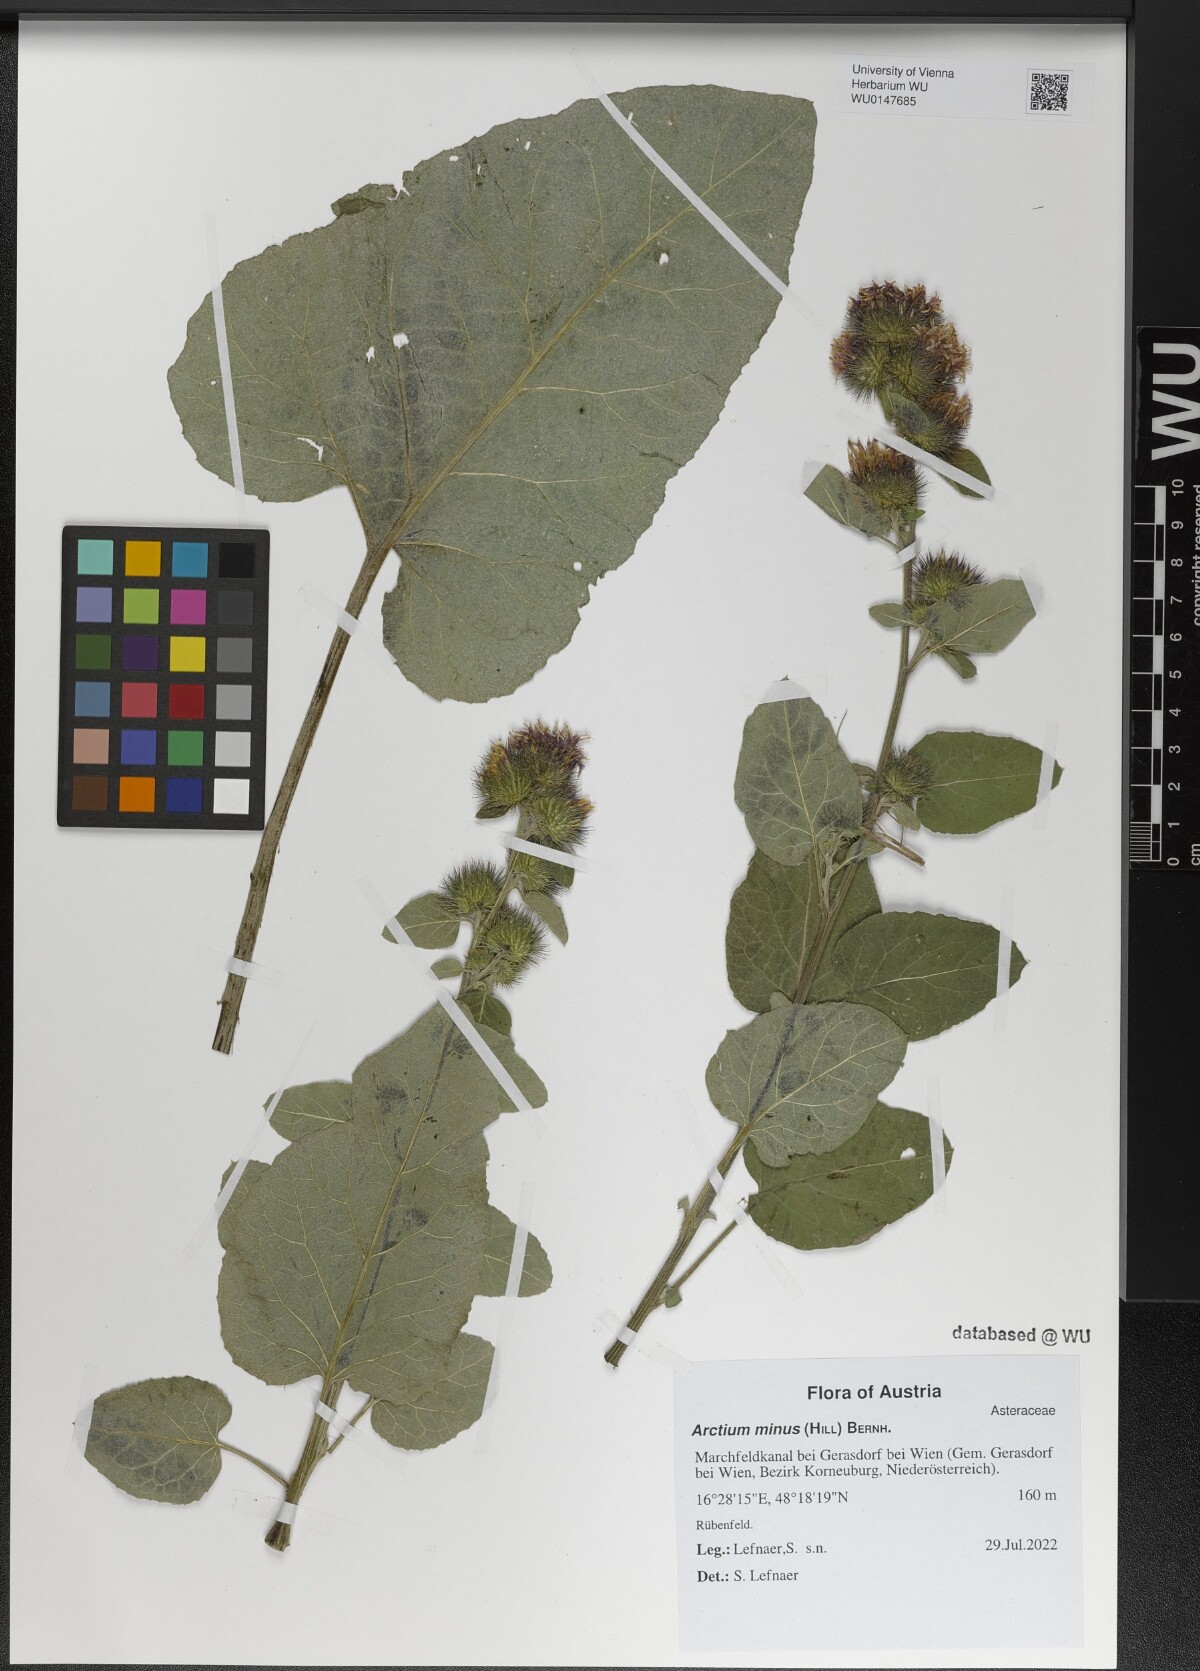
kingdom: Plantae
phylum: Tracheophyta
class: Magnoliopsida
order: Asterales
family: Asteraceae
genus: Arctium
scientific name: Arctium minus
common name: Lesser burdock
